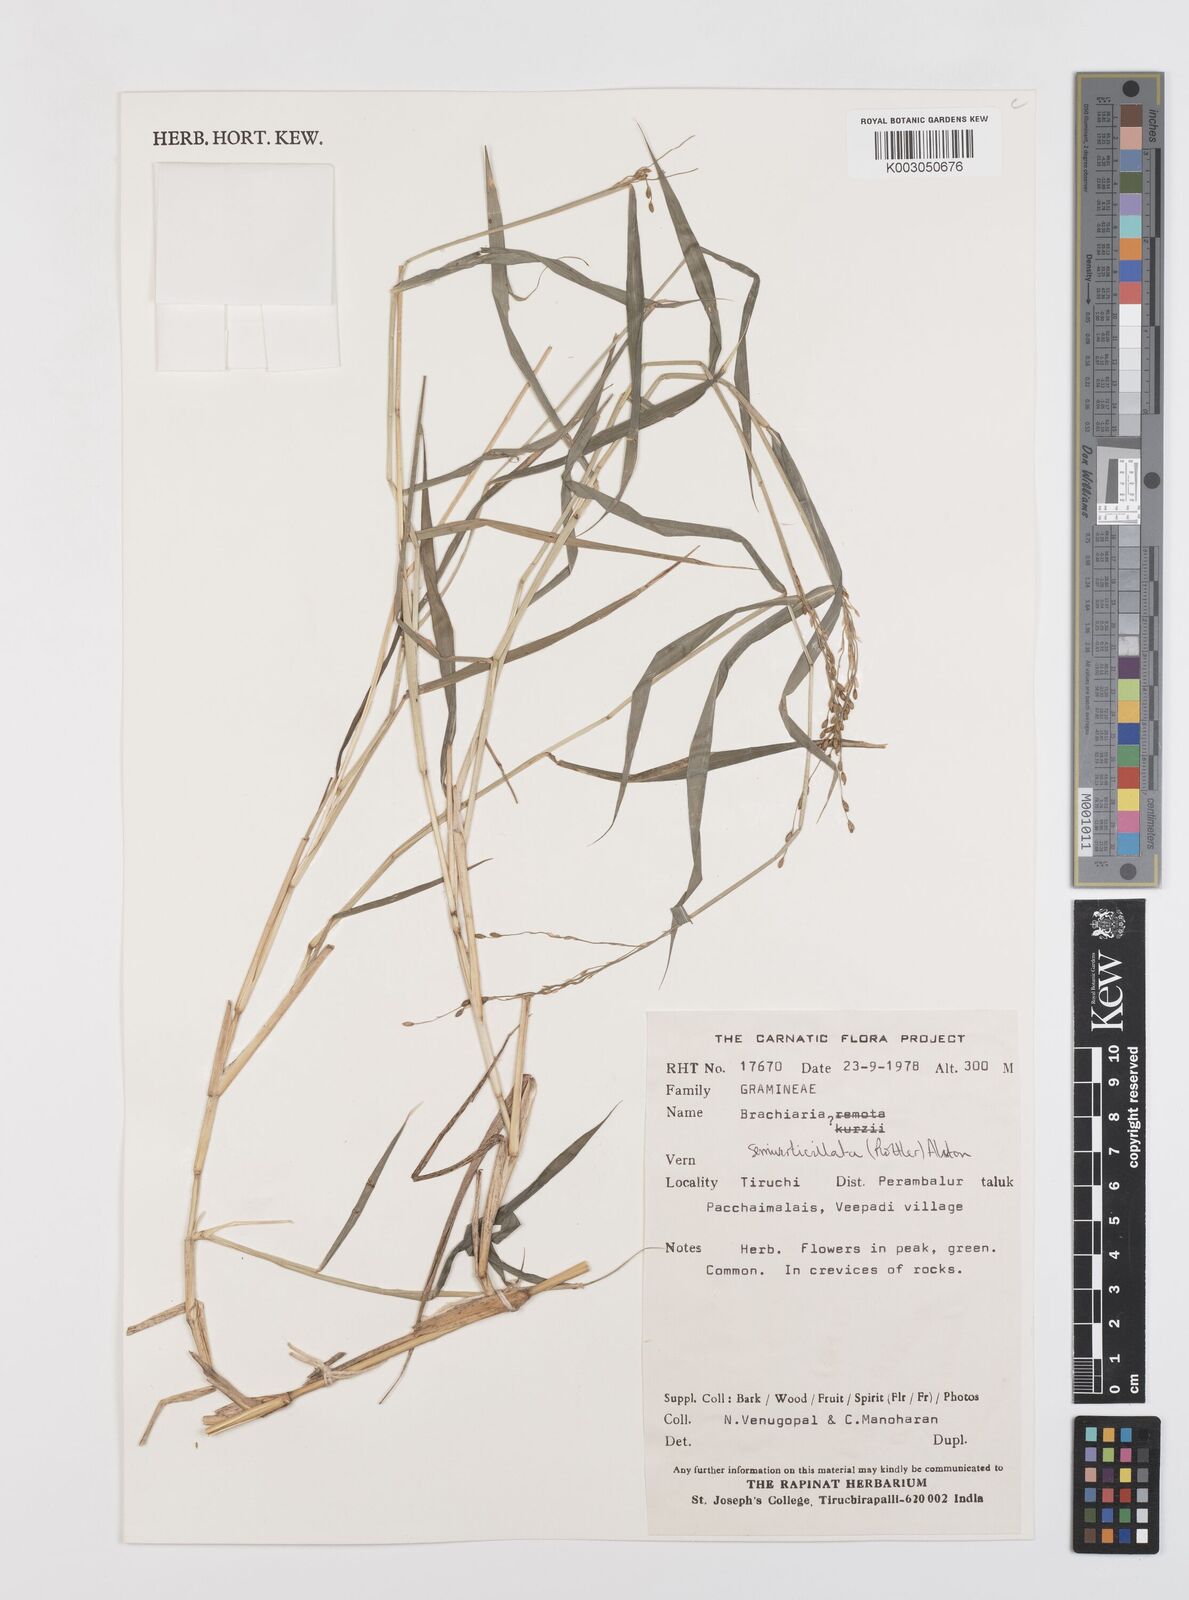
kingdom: Plantae
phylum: Tracheophyta
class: Liliopsida
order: Poales
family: Poaceae
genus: Urochloa
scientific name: Urochloa Brachiaria semiverticillata
